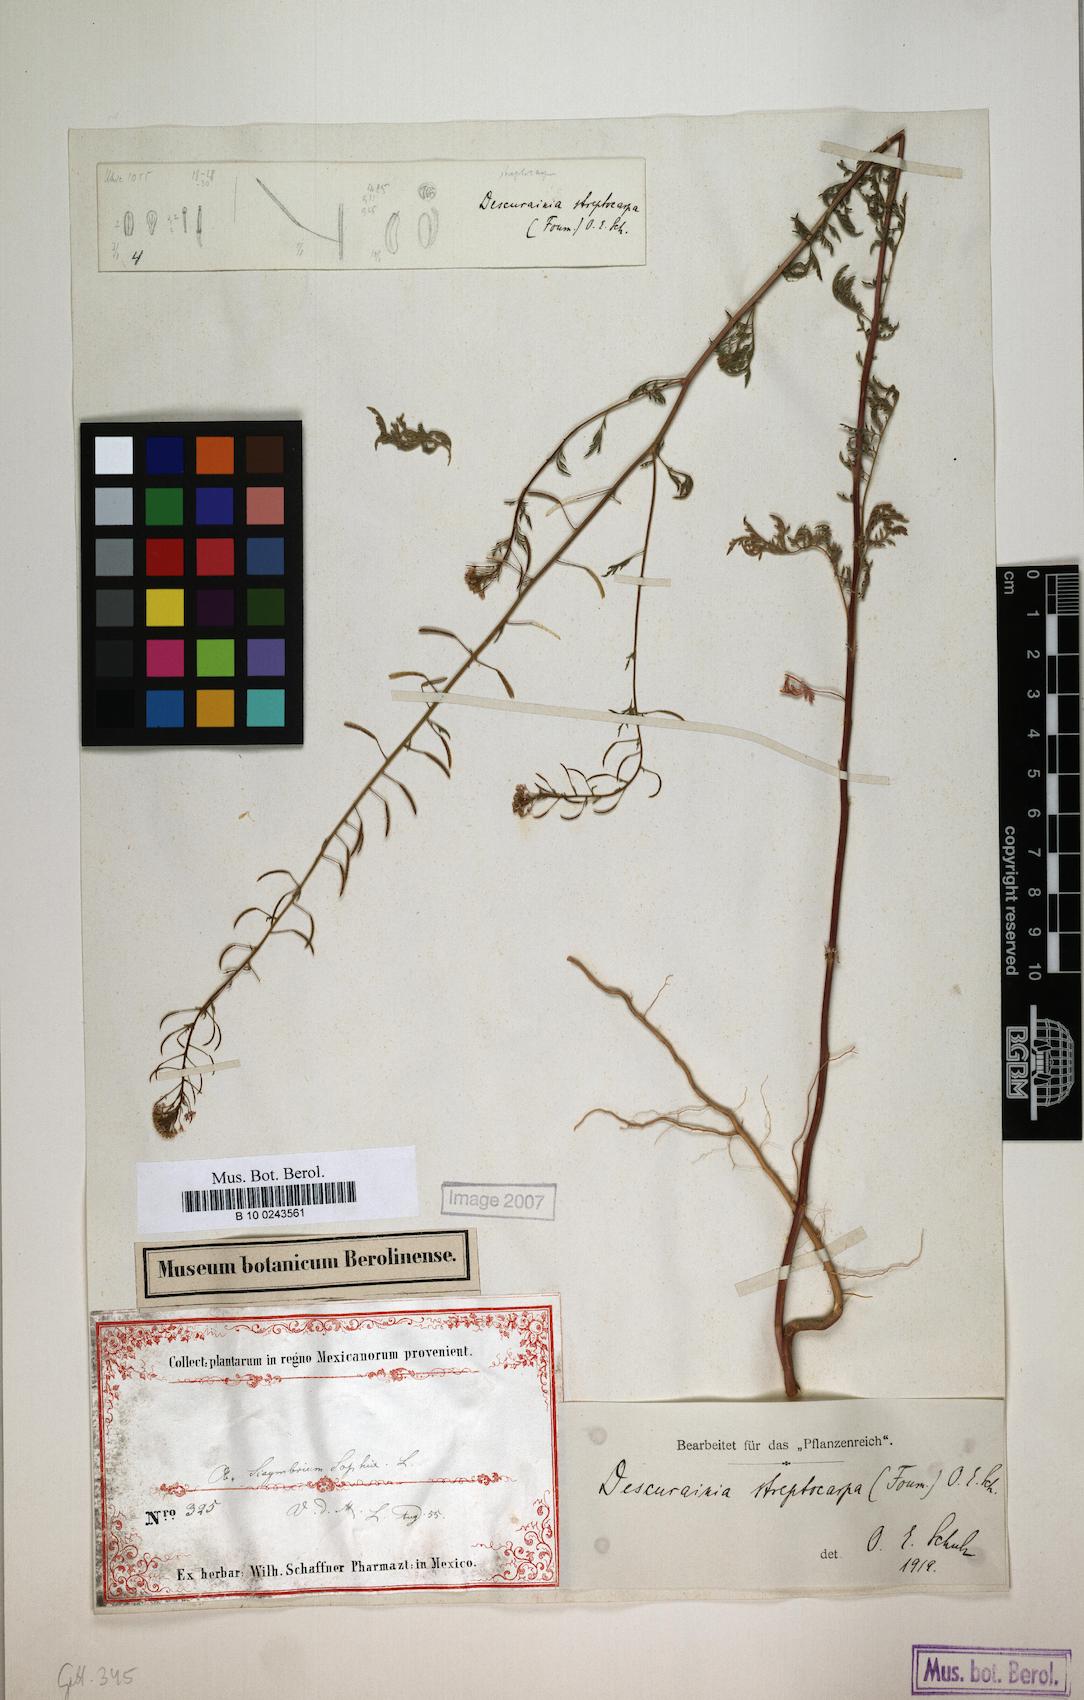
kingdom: Plantae
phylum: Tracheophyta
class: Magnoliopsida
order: Brassicales
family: Brassicaceae
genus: Descurainia
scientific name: Descurainia streptocarpa
